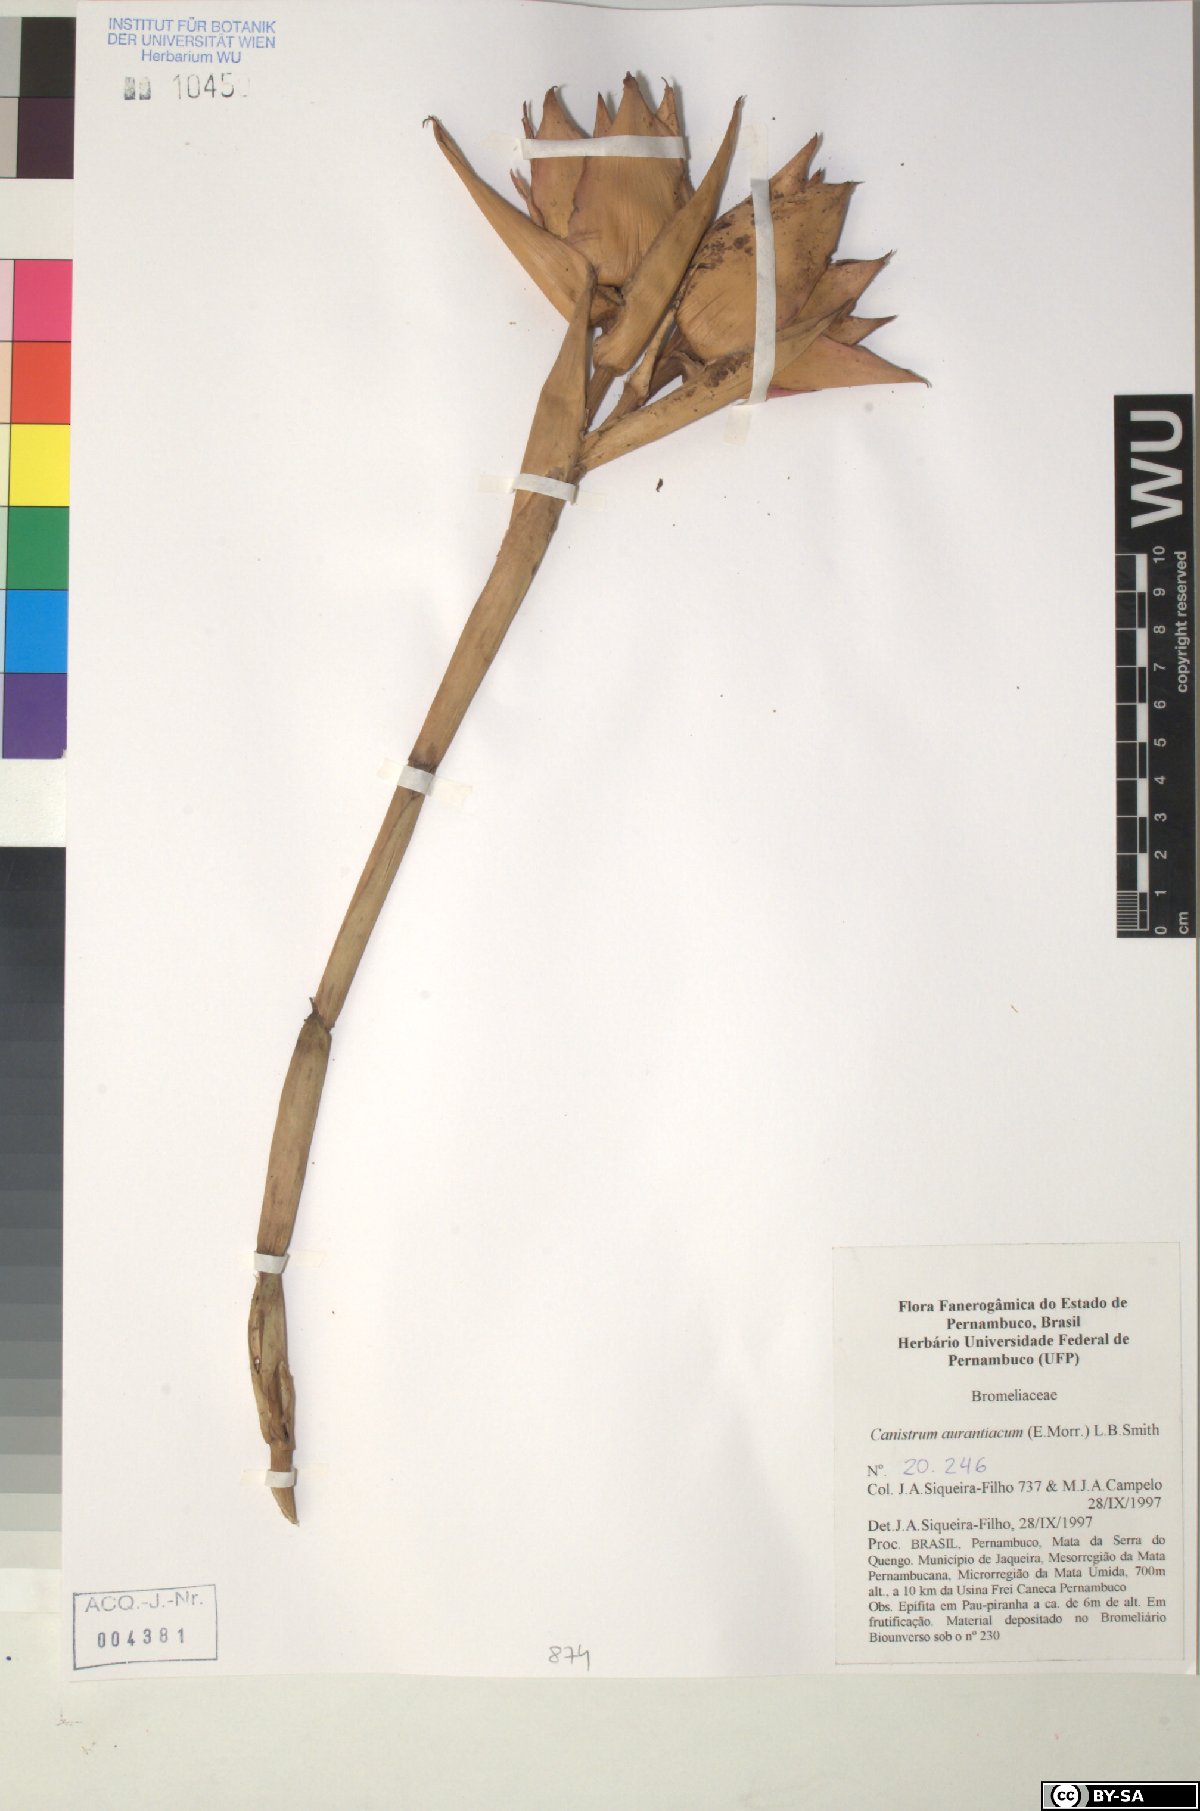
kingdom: Plantae
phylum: Tracheophyta
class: Liliopsida
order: Poales
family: Bromeliaceae
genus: Canistrum
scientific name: Canistrum aurantiacum
